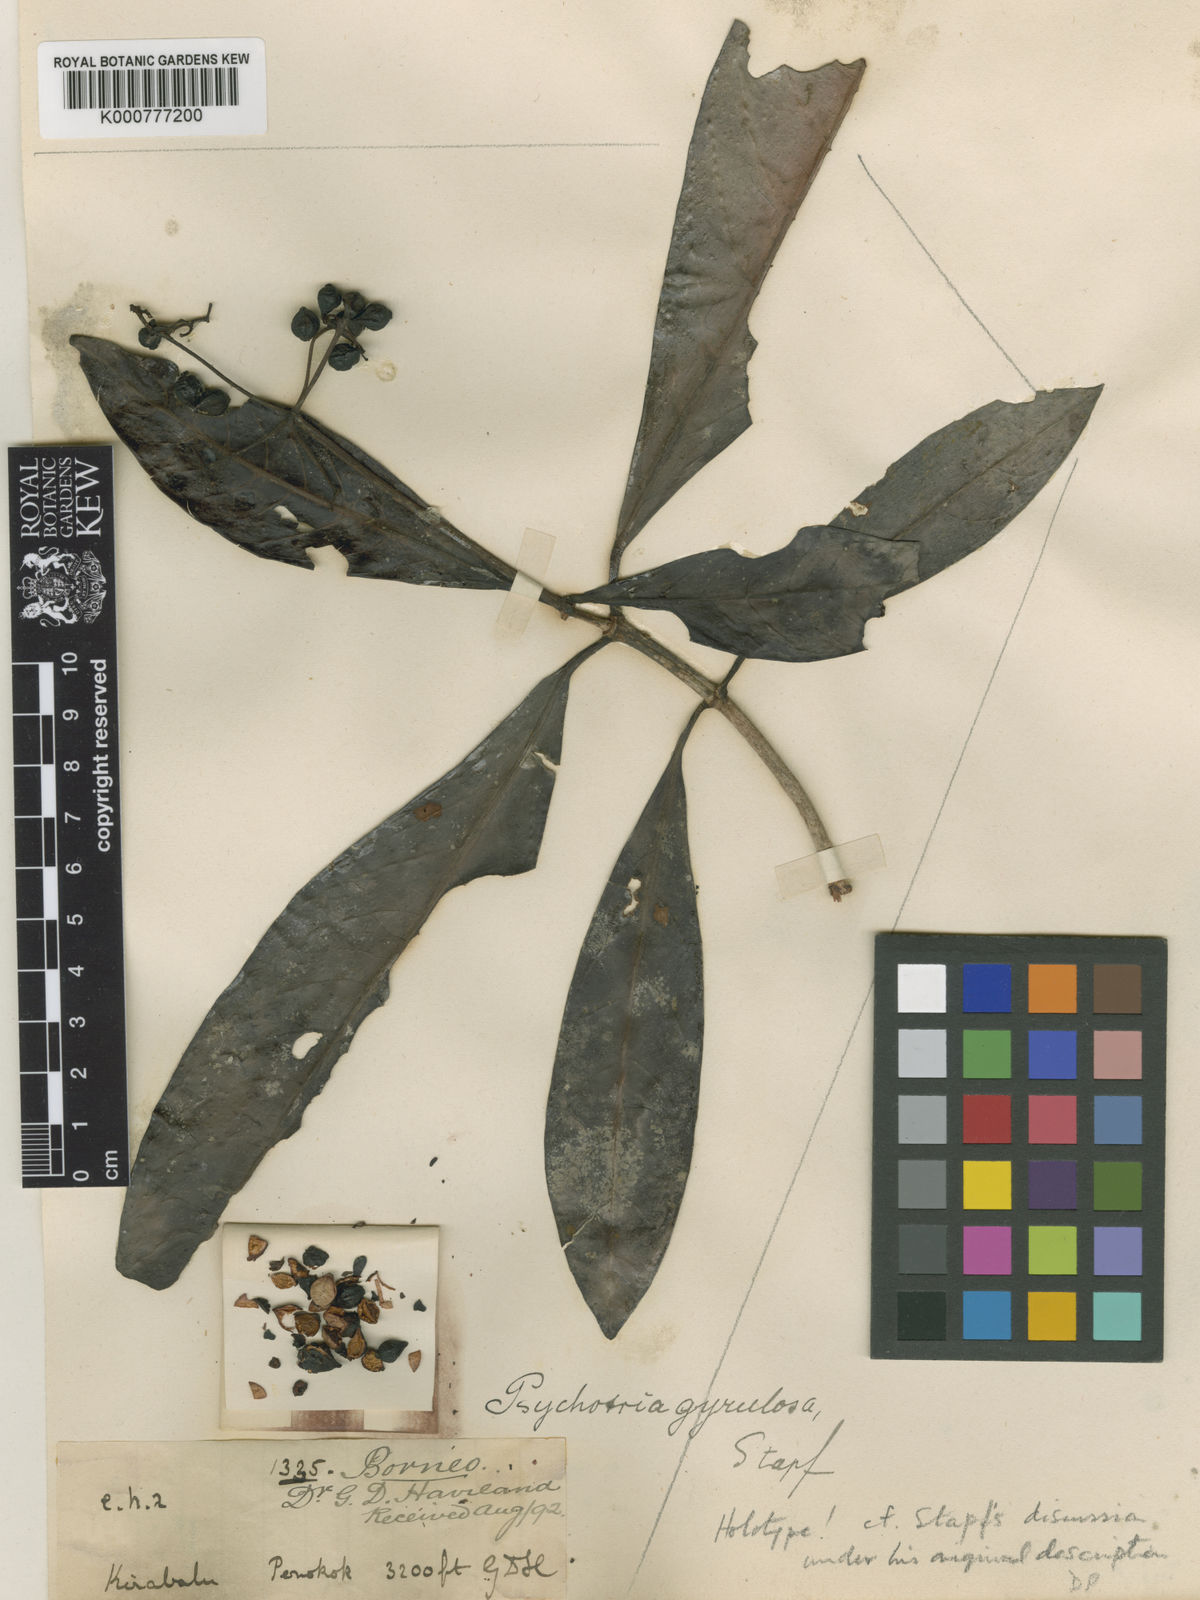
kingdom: Plantae
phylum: Tracheophyta
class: Magnoliopsida
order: Gentianales
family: Rubiaceae
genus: Psychotria
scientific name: Psychotria gyrulosa
